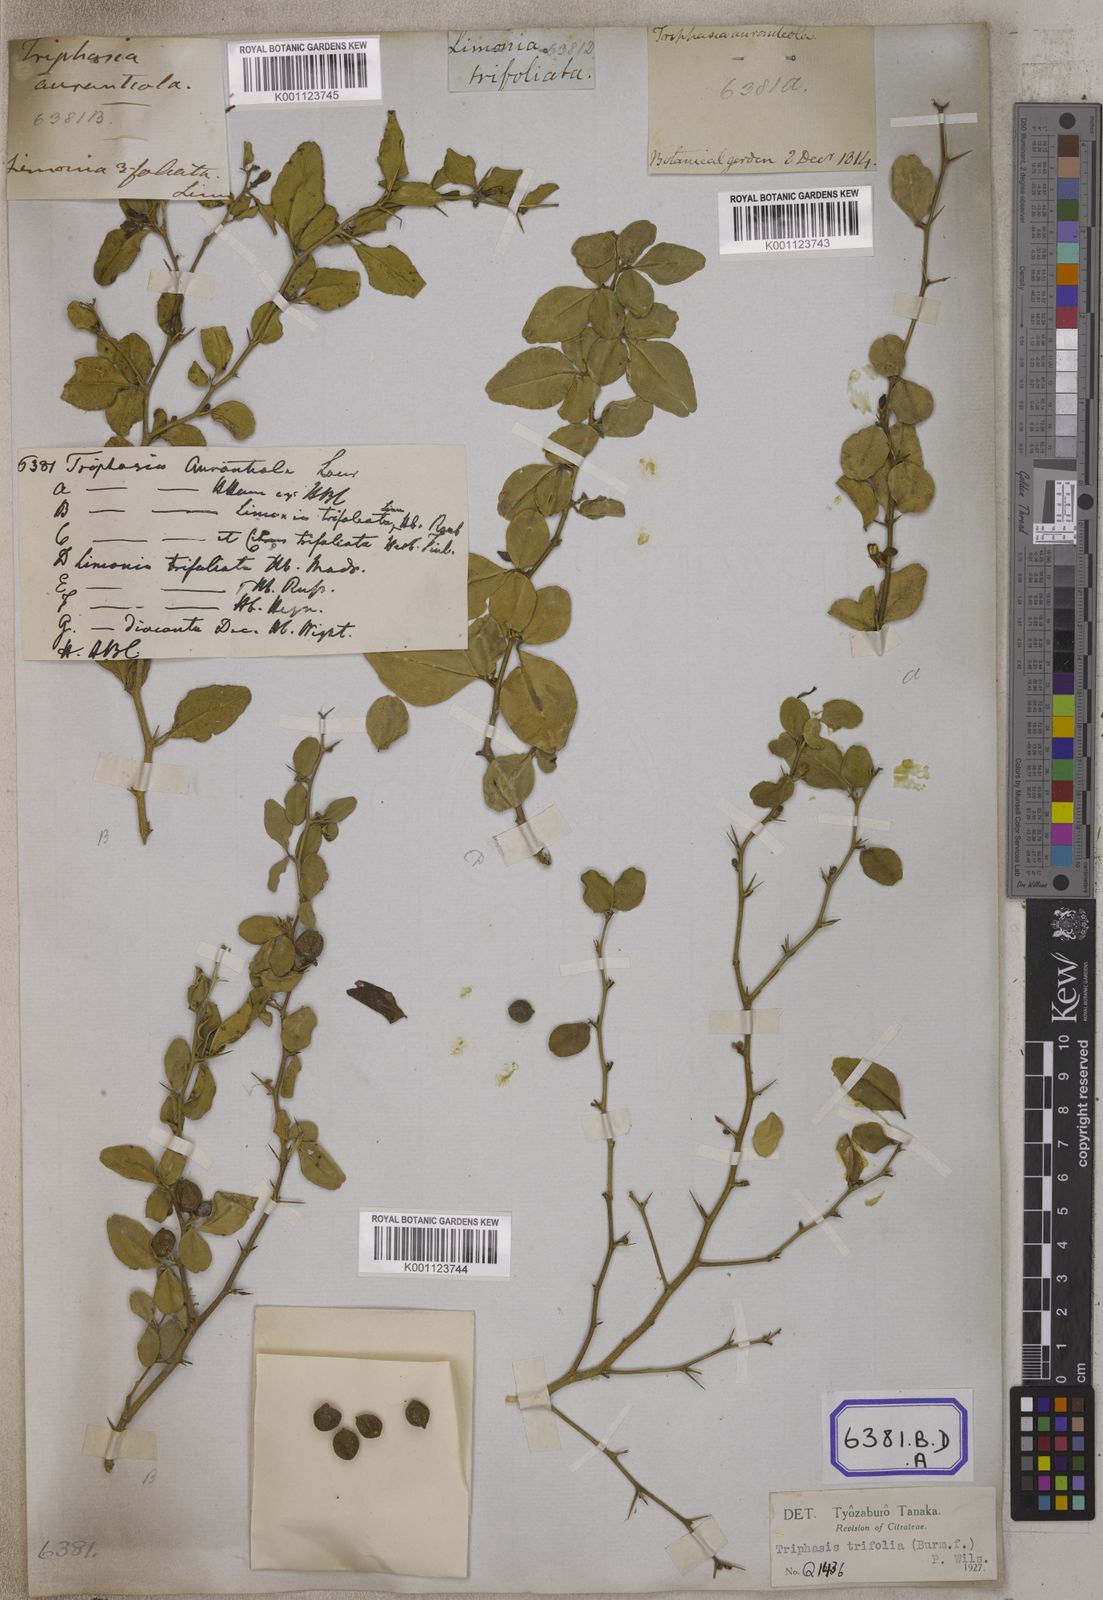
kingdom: Plantae
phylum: Tracheophyta
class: Magnoliopsida
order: Sapindales
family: Rutaceae
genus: Triphasia
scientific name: Triphasia trifolia
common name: Limeberry
